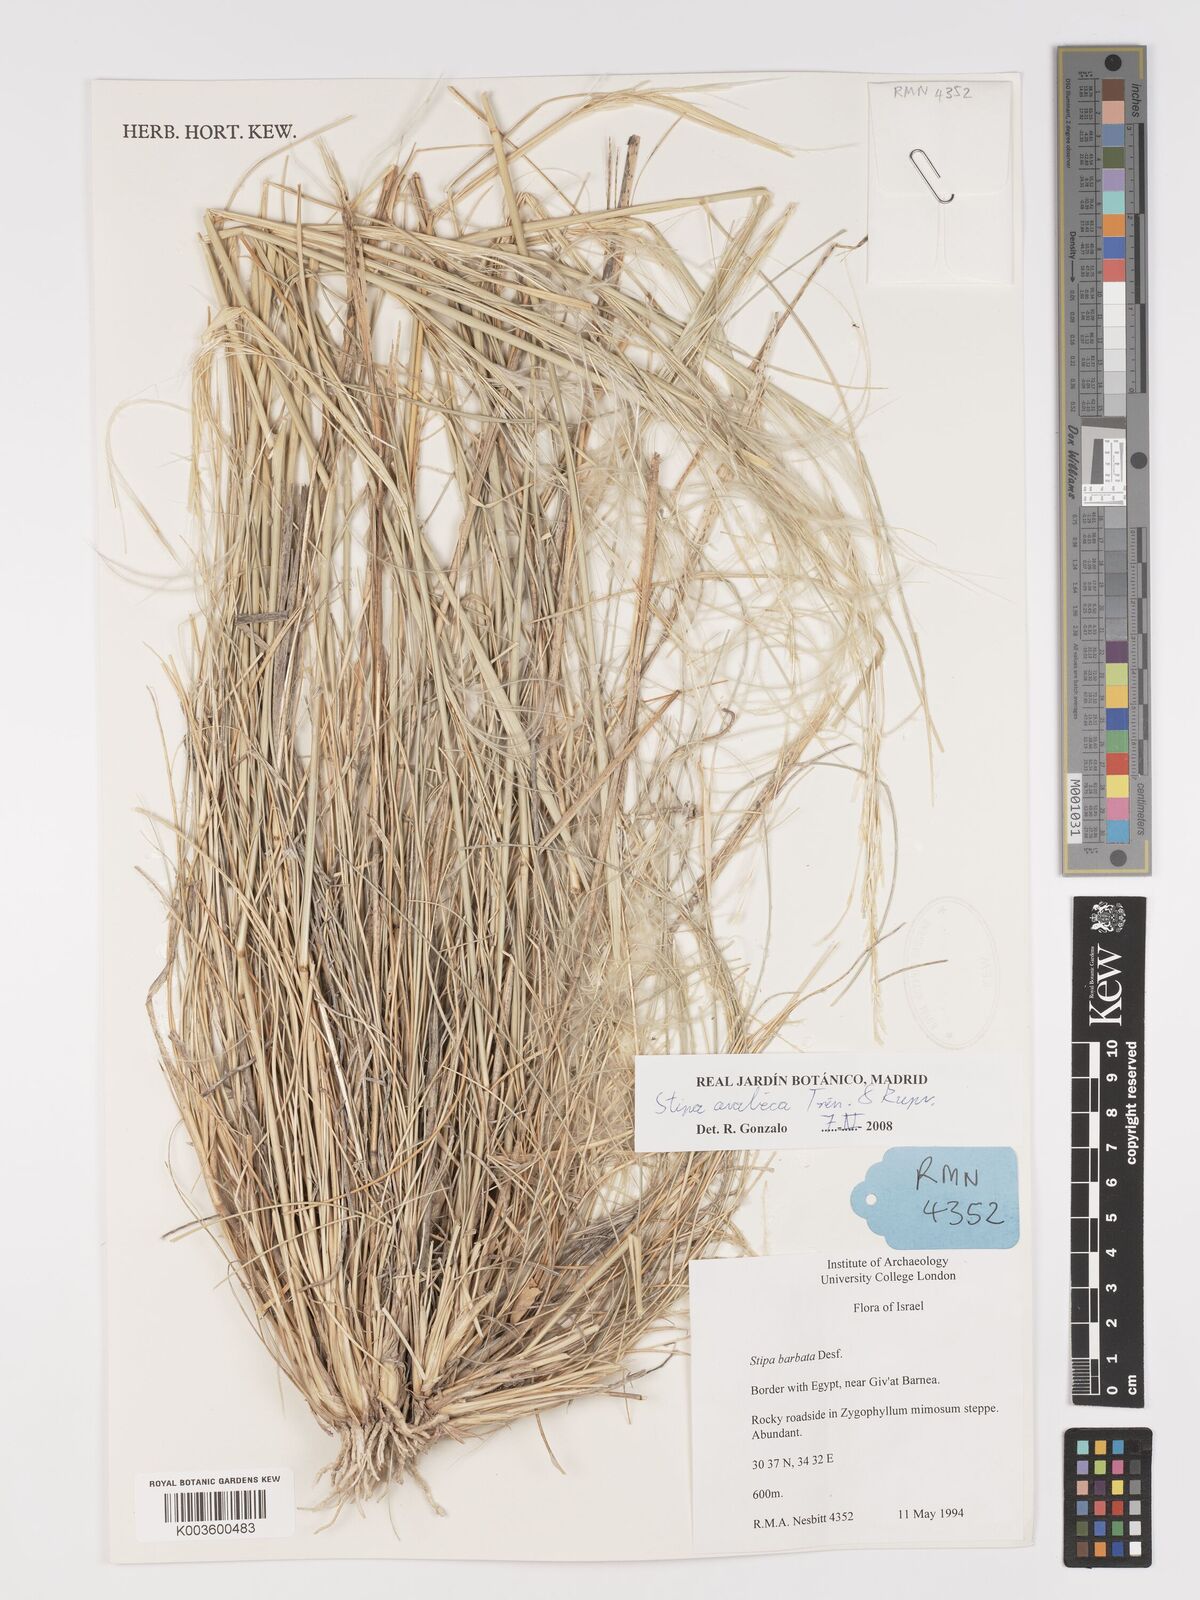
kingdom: Plantae
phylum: Tracheophyta
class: Liliopsida
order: Poales
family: Poaceae
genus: Stipa
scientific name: Stipa arabica
